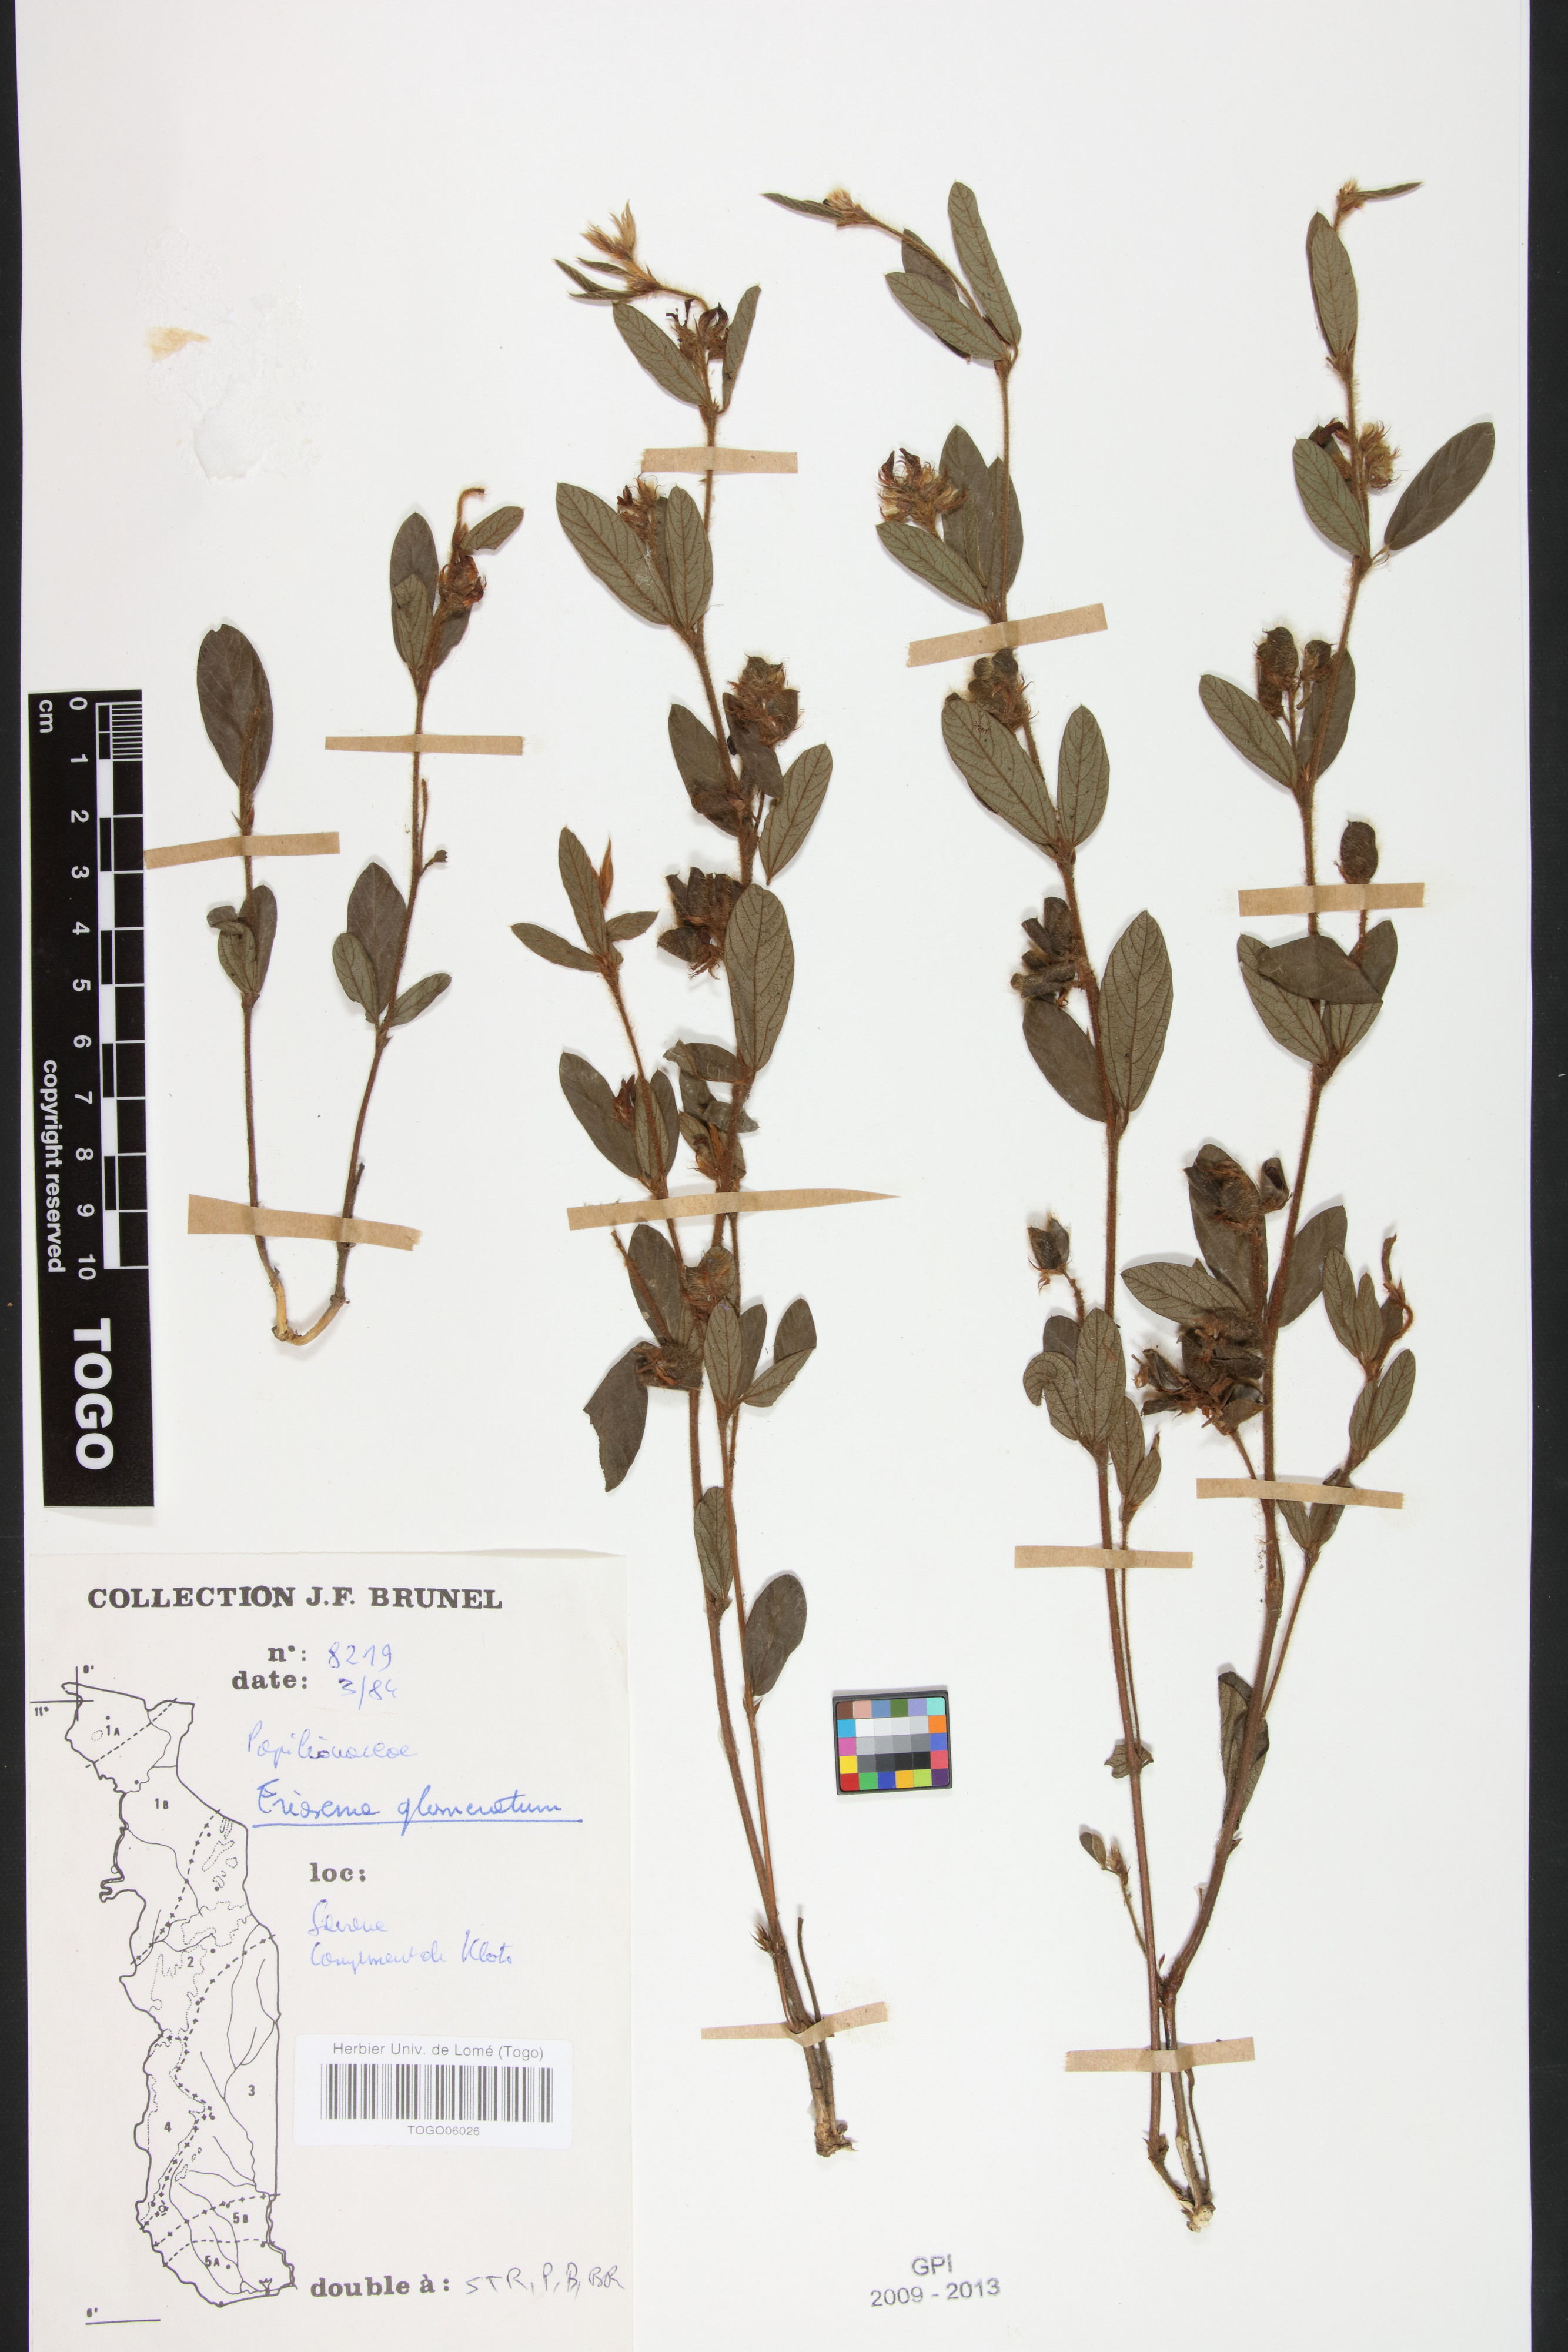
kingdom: Plantae
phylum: Tracheophyta
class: Magnoliopsida
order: Fabales
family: Fabaceae
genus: Eriosema
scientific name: Eriosema glomeratum
